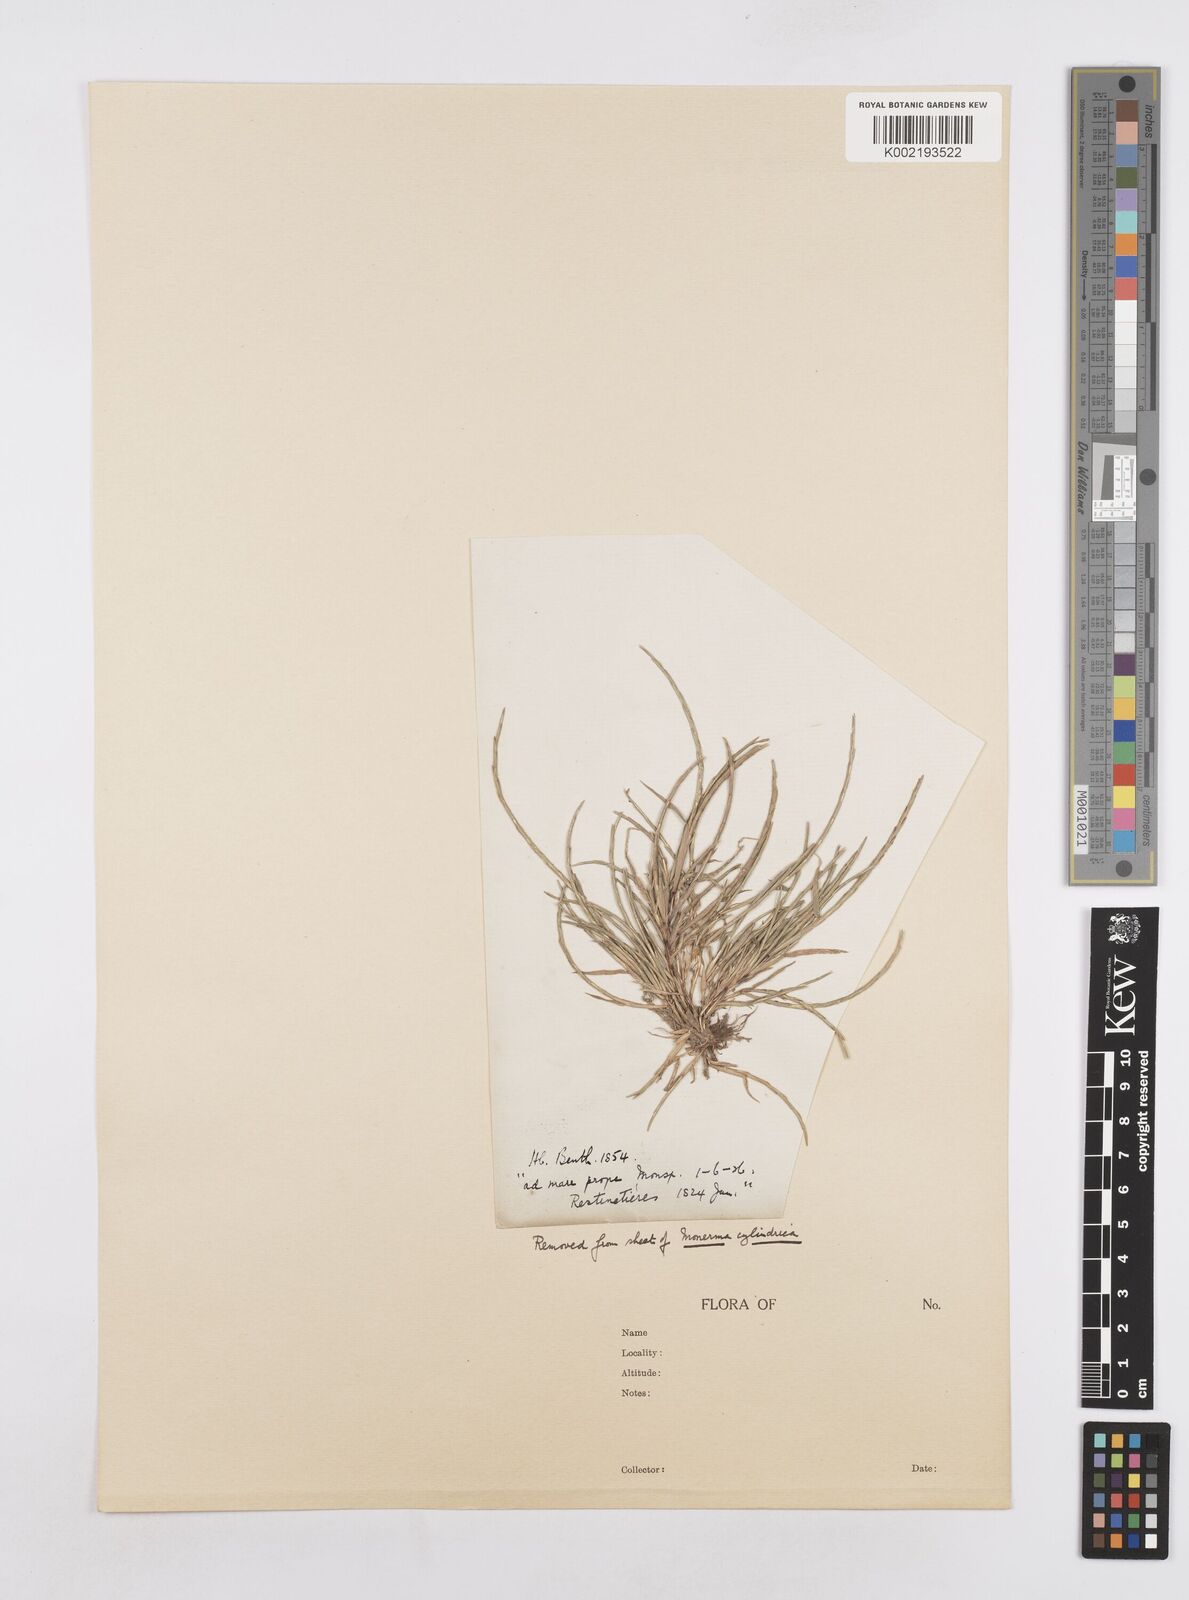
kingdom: Plantae
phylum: Tracheophyta
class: Liliopsida
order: Poales
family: Poaceae
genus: Parapholis
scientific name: Parapholis incurva
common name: Curved sicklegrass
